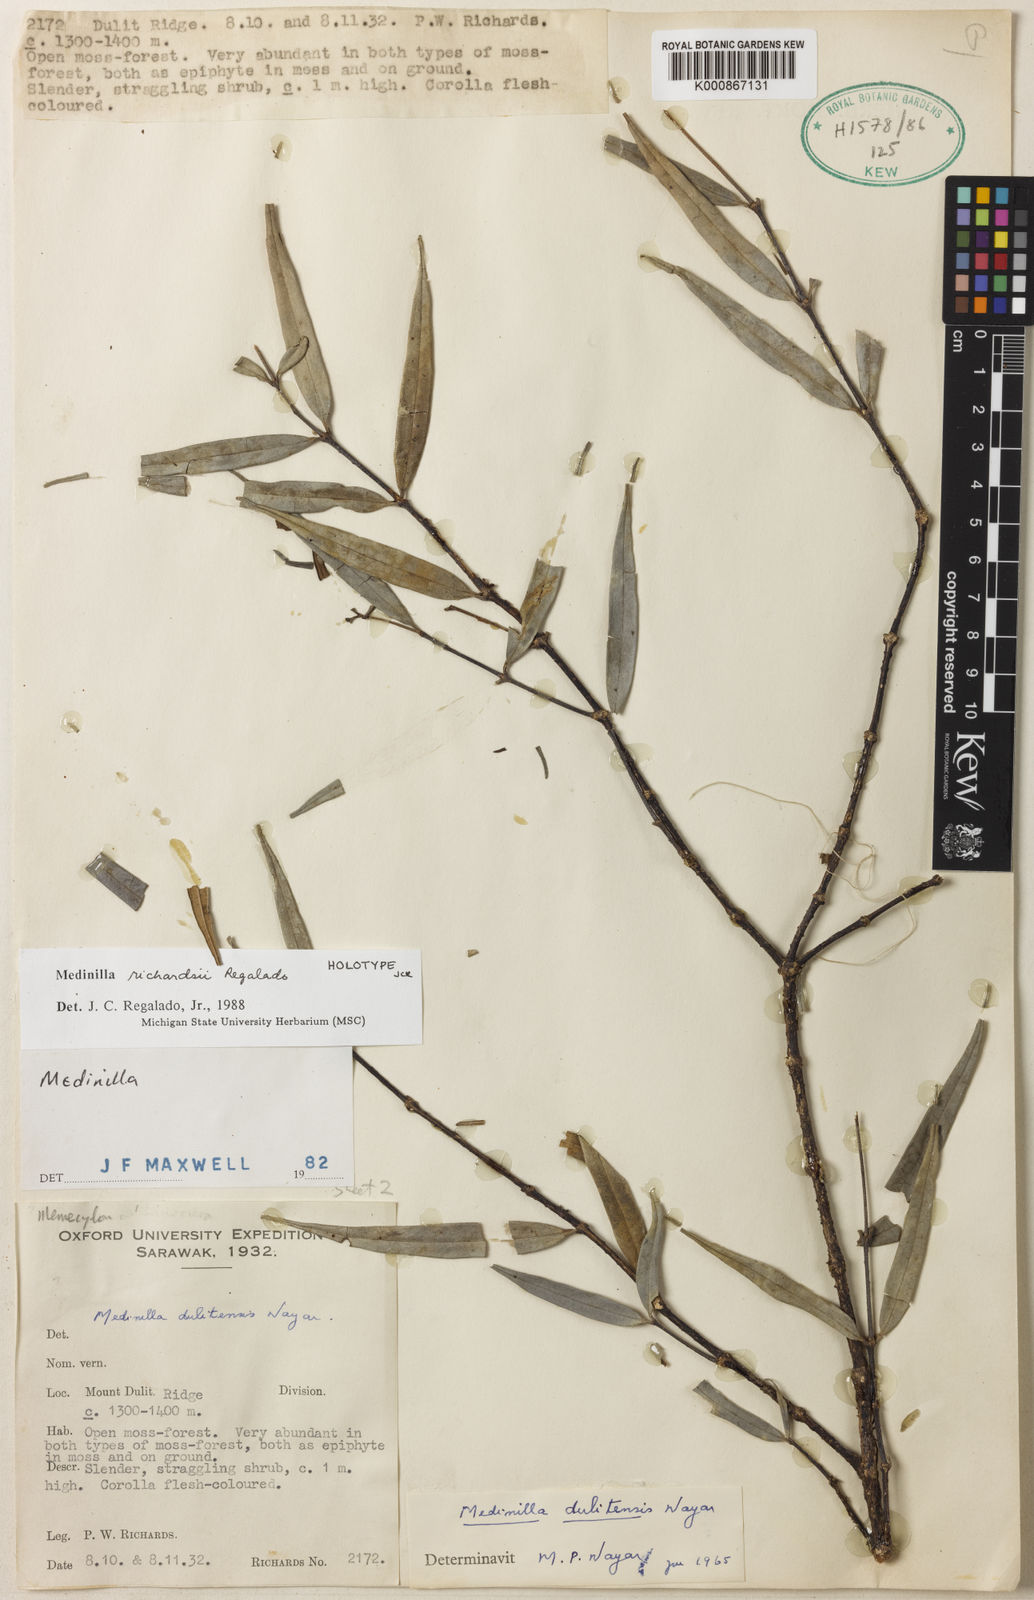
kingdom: Plantae
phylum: Tracheophyta
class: Magnoliopsida
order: Myrtales
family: Melastomataceae
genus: Medinilla
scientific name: Medinilla richardsii
